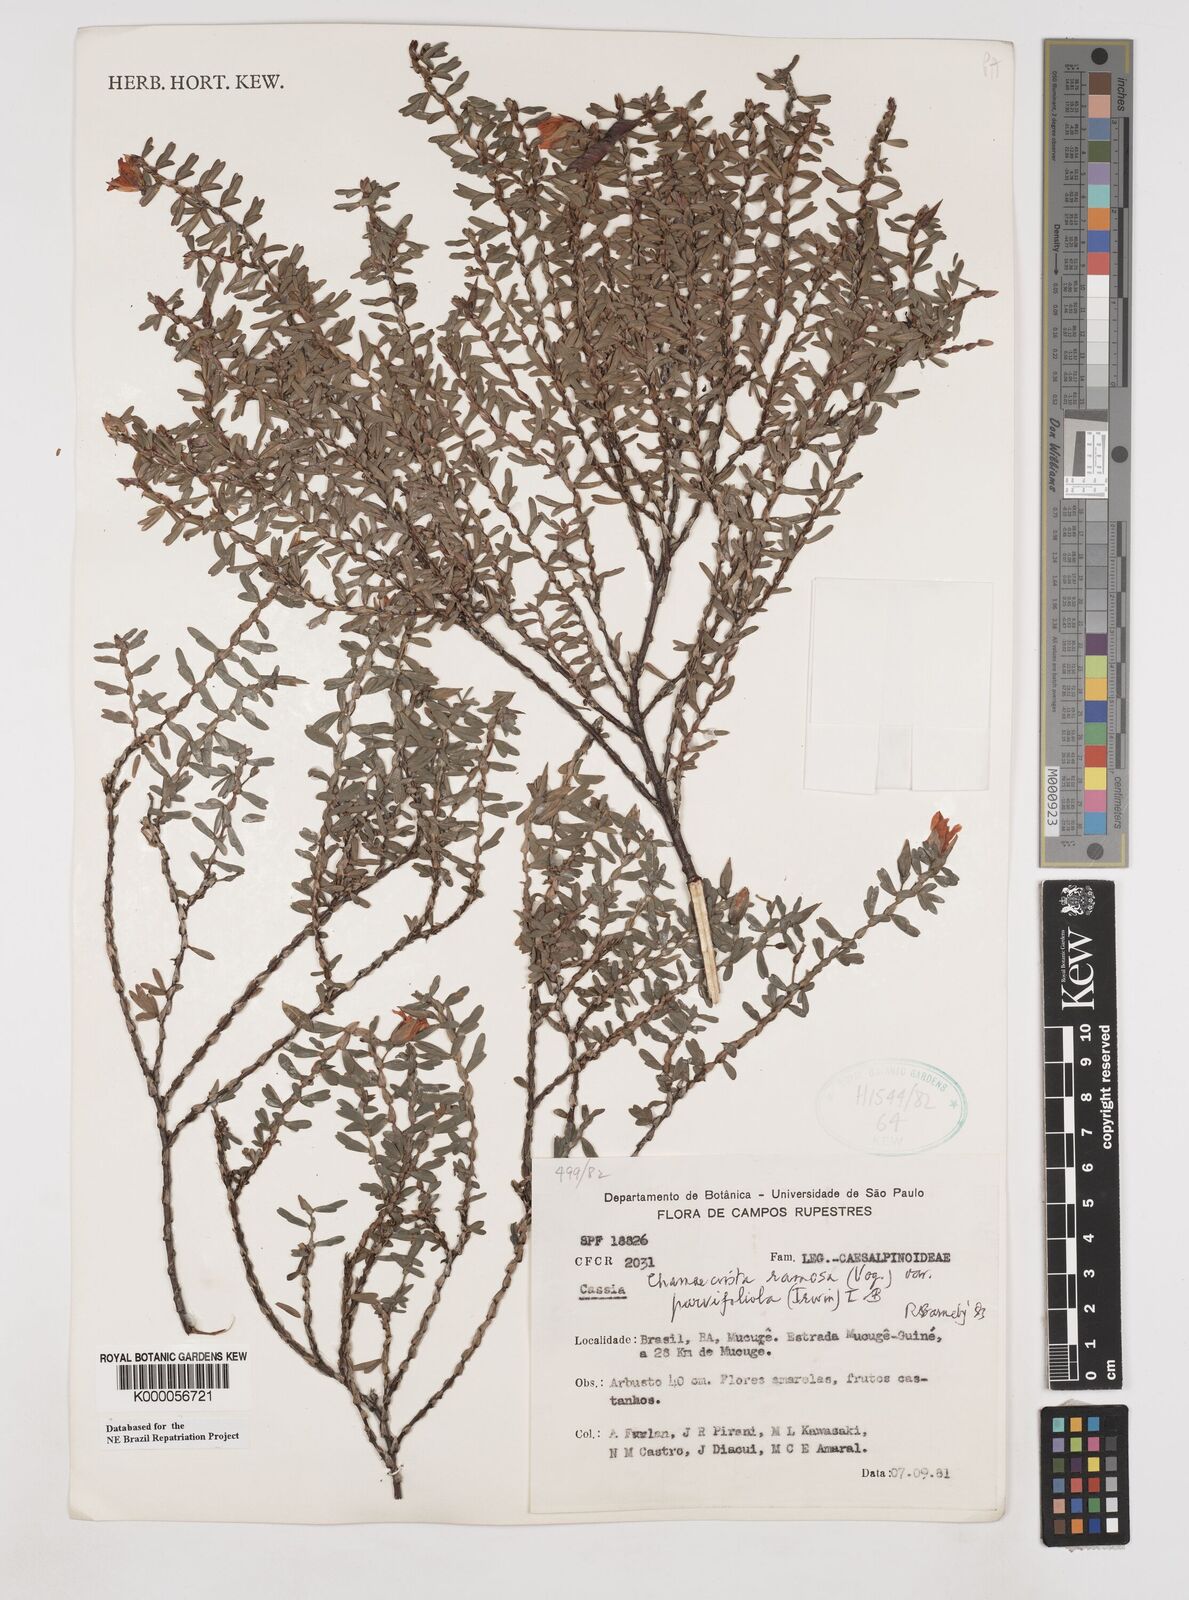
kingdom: Plantae
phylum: Tracheophyta
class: Magnoliopsida
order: Fabales
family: Fabaceae
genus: Chamaecrista
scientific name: Chamaecrista ramosa
